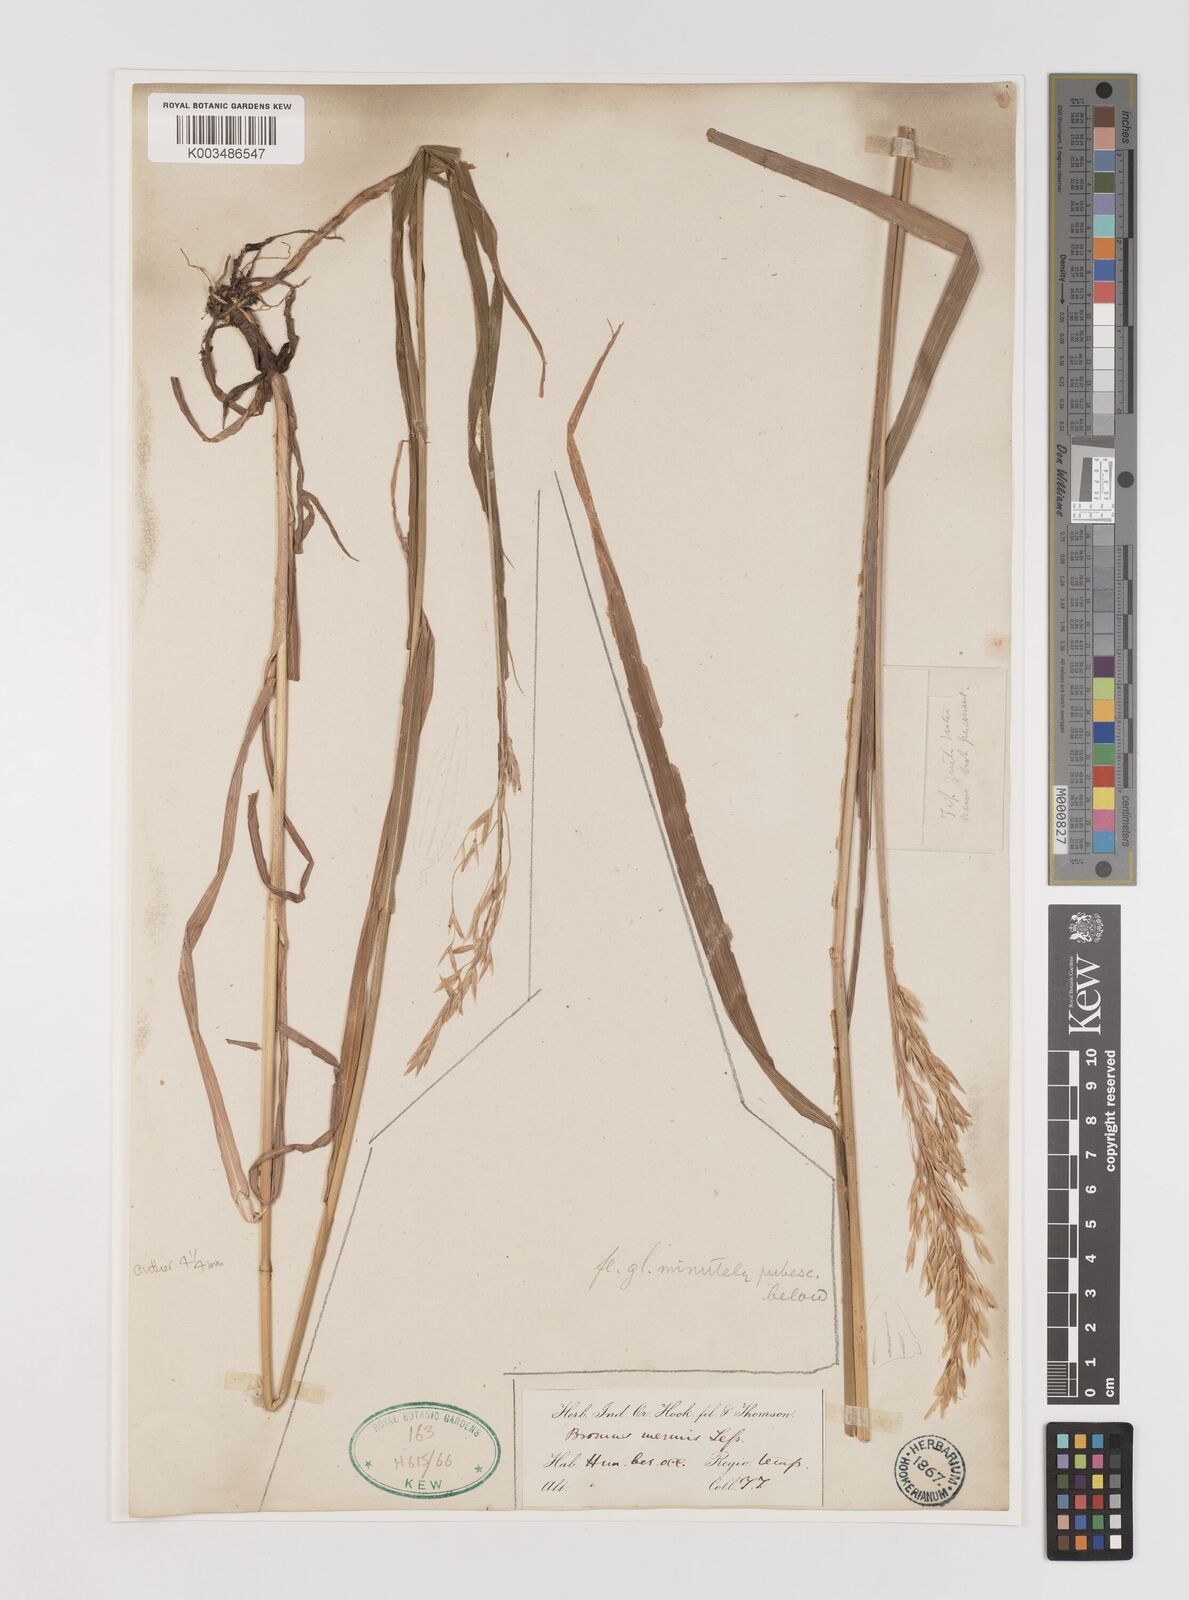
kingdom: Plantae
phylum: Tracheophyta
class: Liliopsida
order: Poales
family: Poaceae
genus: Bromus
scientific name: Bromus inermis
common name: Smooth brome
